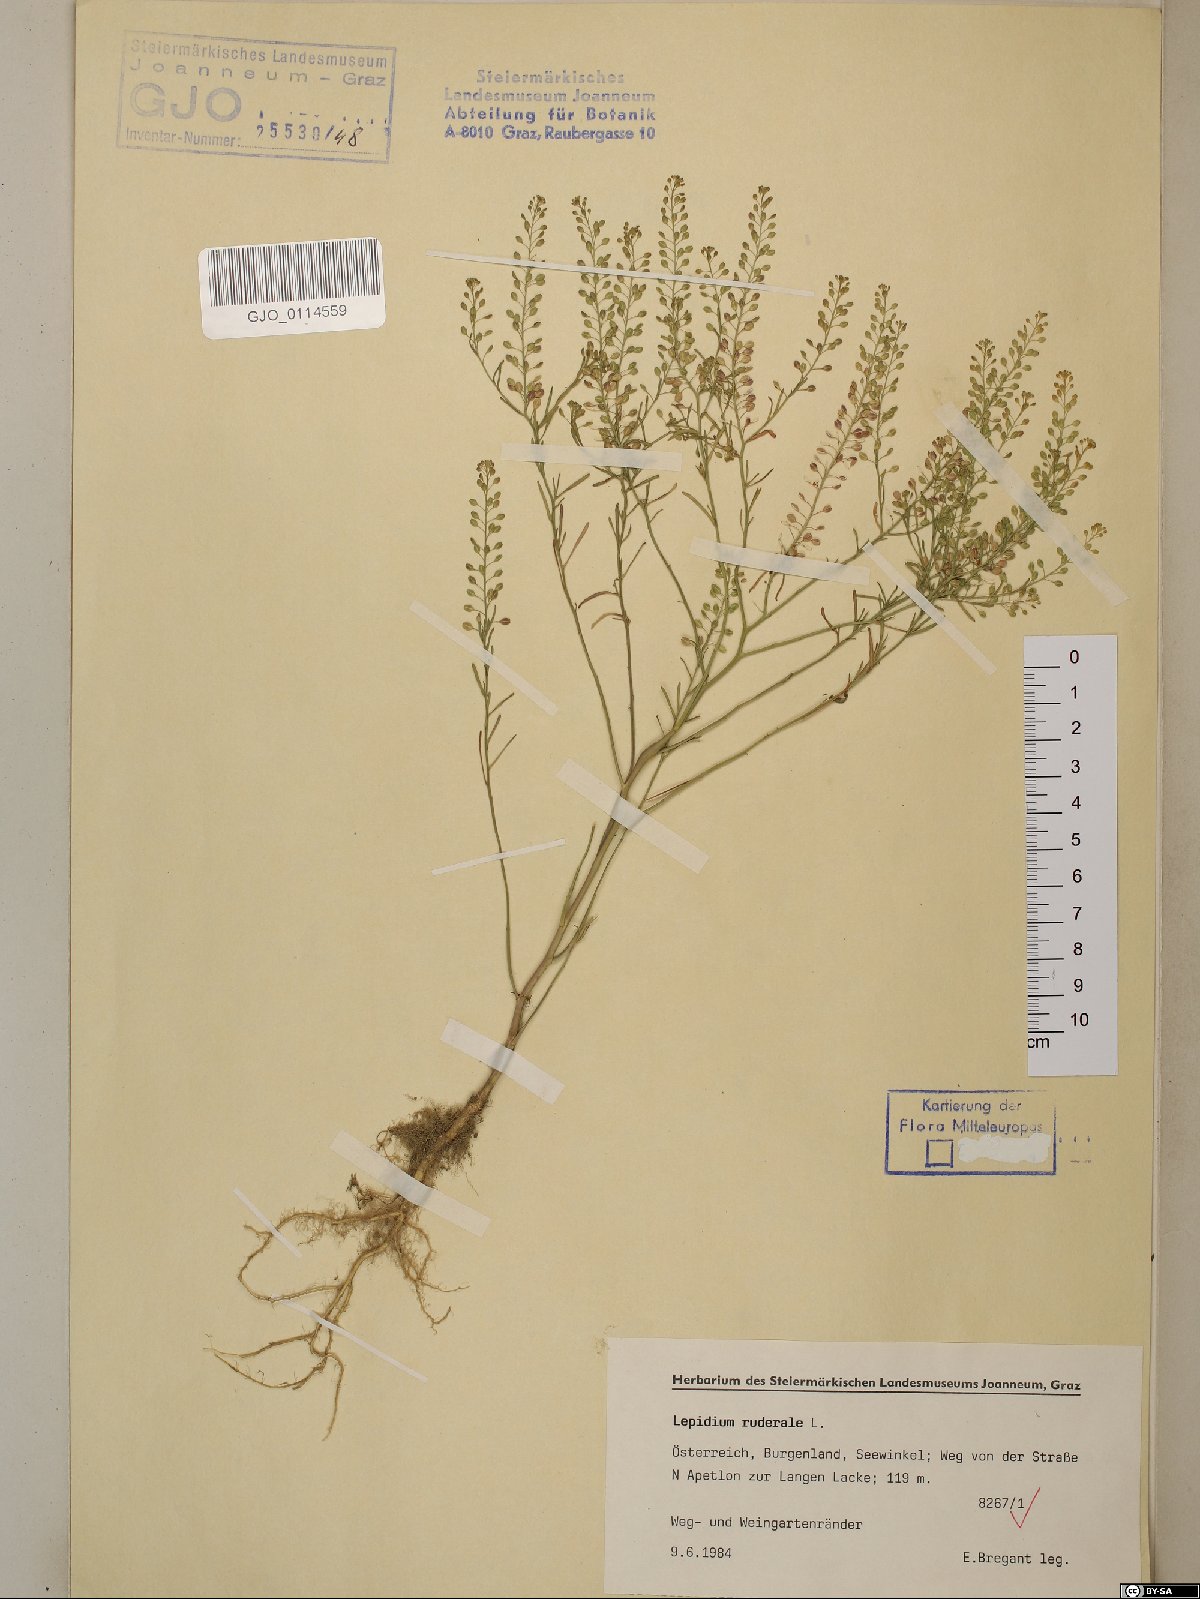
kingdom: Plantae
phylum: Tracheophyta
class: Magnoliopsida
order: Brassicales
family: Brassicaceae
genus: Lepidium
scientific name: Lepidium ruderale
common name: Narrow-leaved pepperwort
